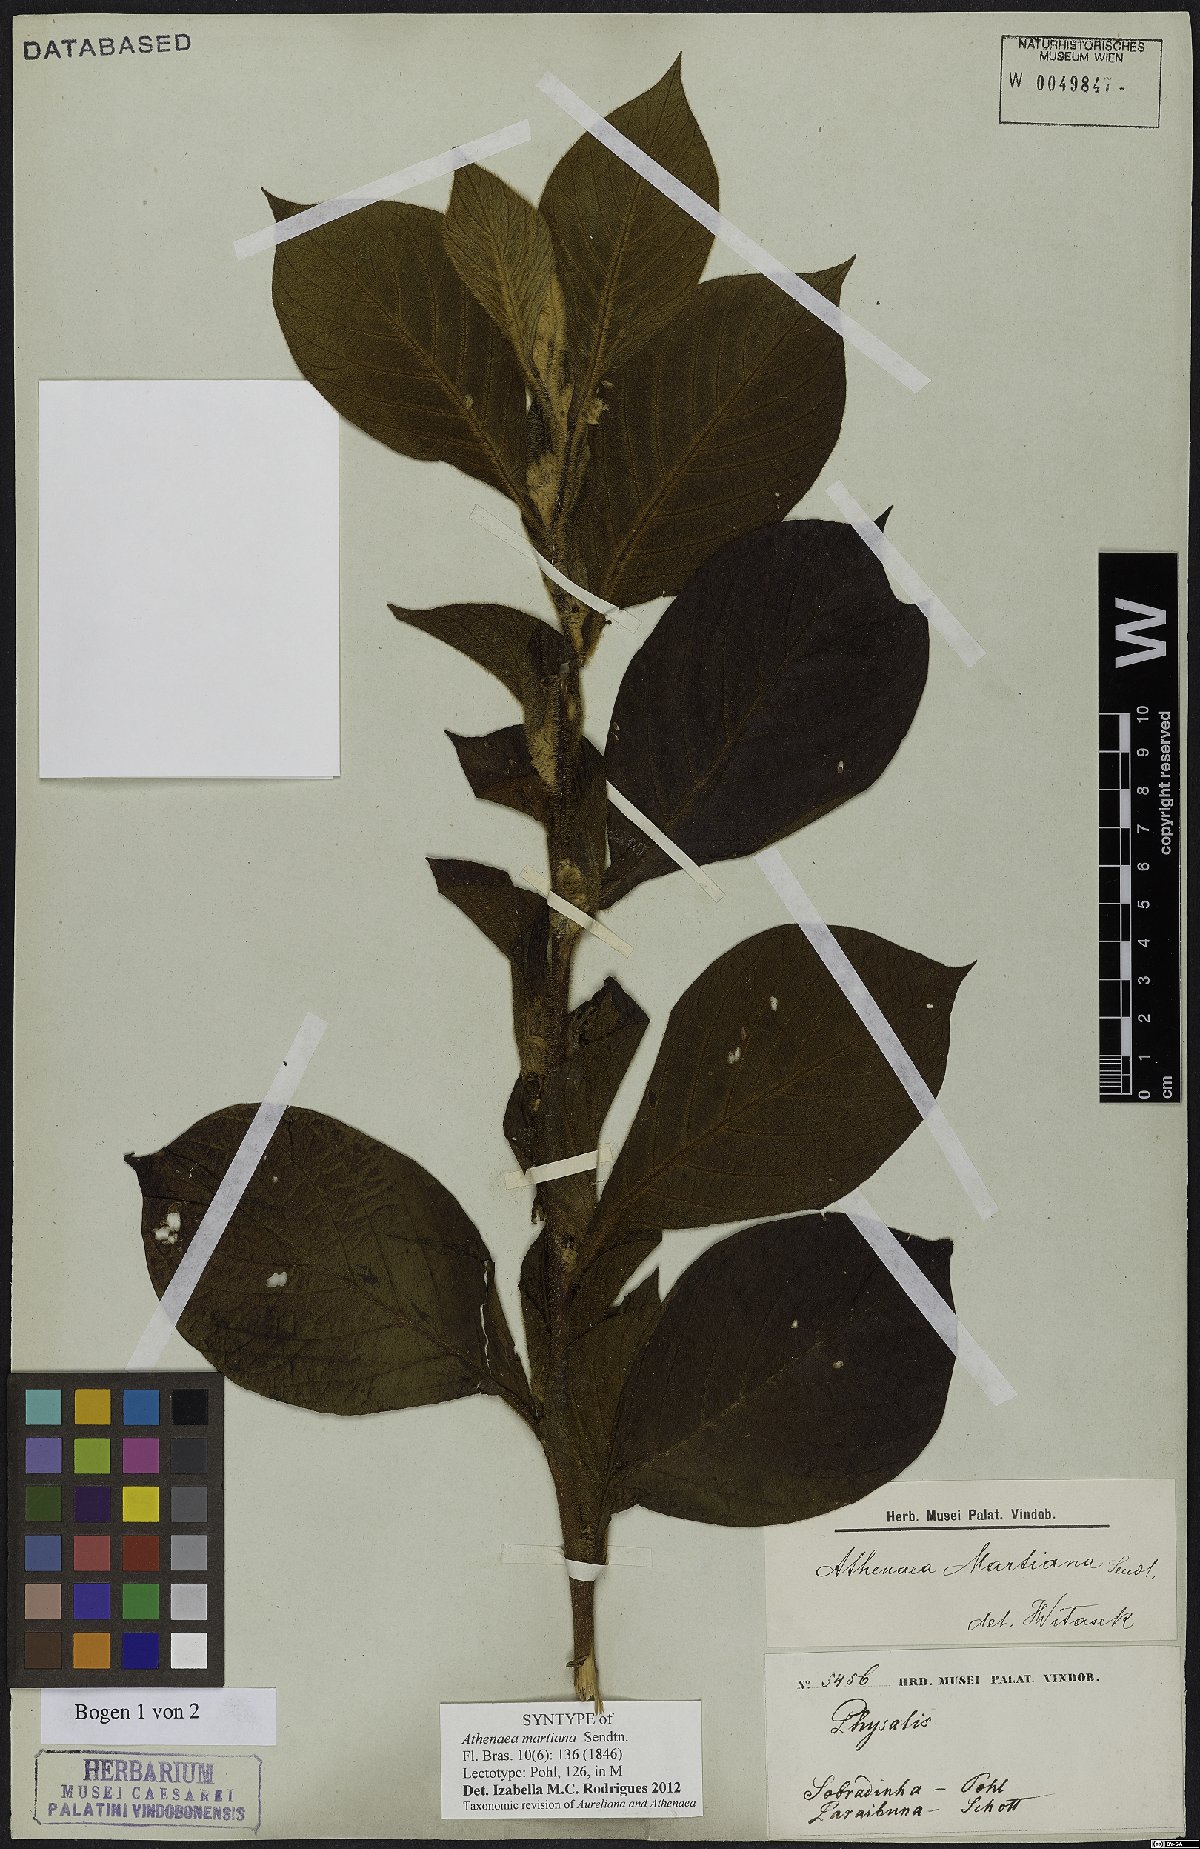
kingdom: Plantae
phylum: Tracheophyta
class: Magnoliopsida
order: Solanales
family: Solanaceae
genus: Athenaea
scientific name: Athenaea martiana
